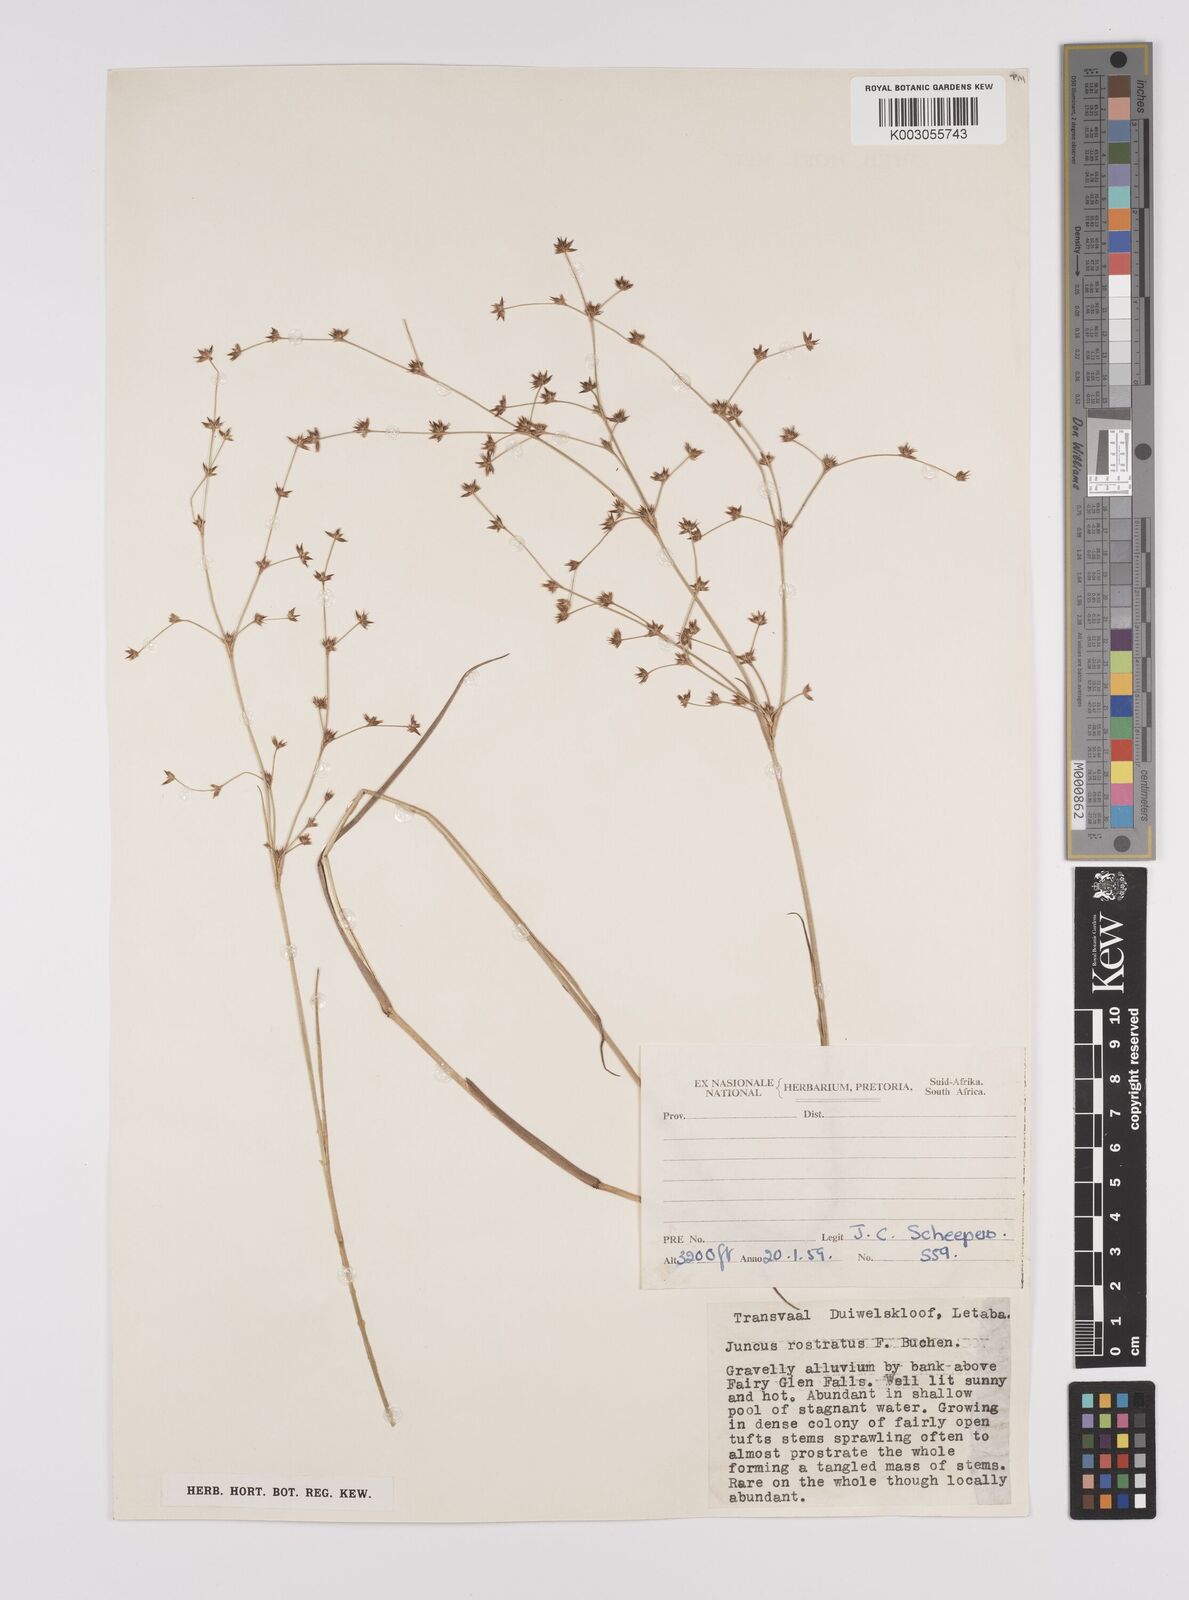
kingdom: Plantae
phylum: Tracheophyta
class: Liliopsida
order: Poales
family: Juncaceae
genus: Juncus
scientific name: Juncus exsertus
